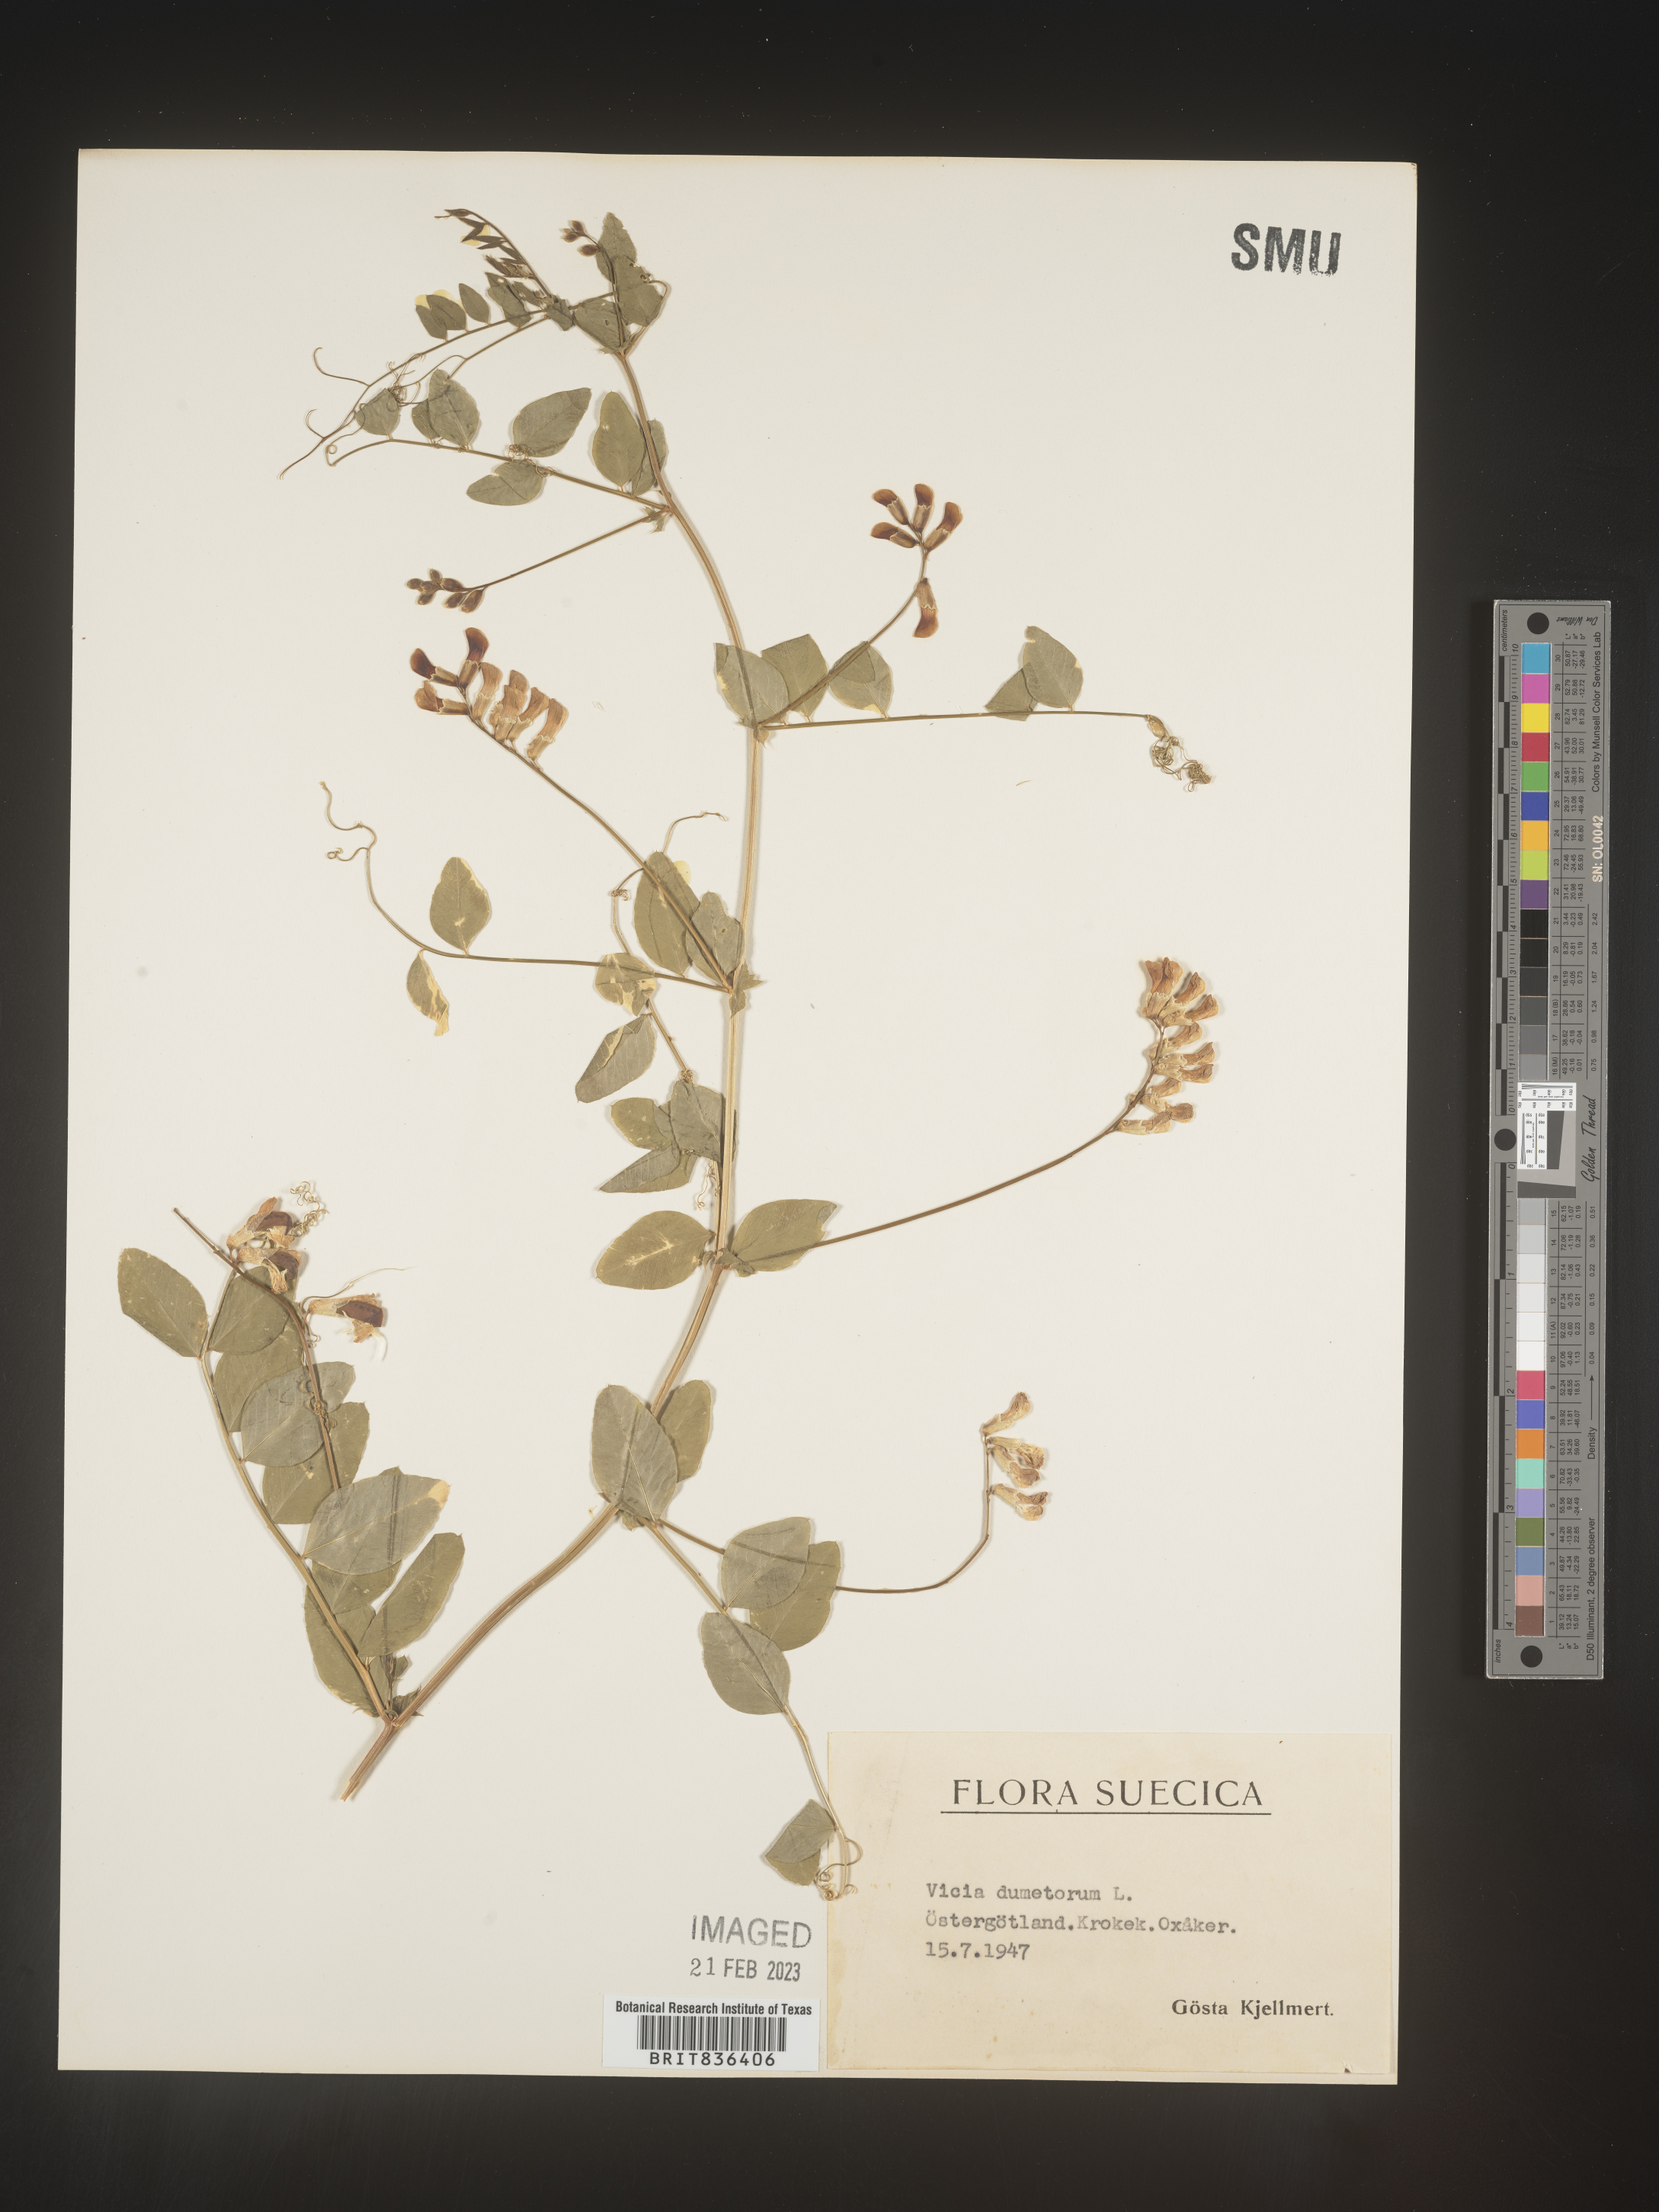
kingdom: Plantae
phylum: Tracheophyta
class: Magnoliopsida
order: Fabales
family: Fabaceae
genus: Vicia
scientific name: Vicia
